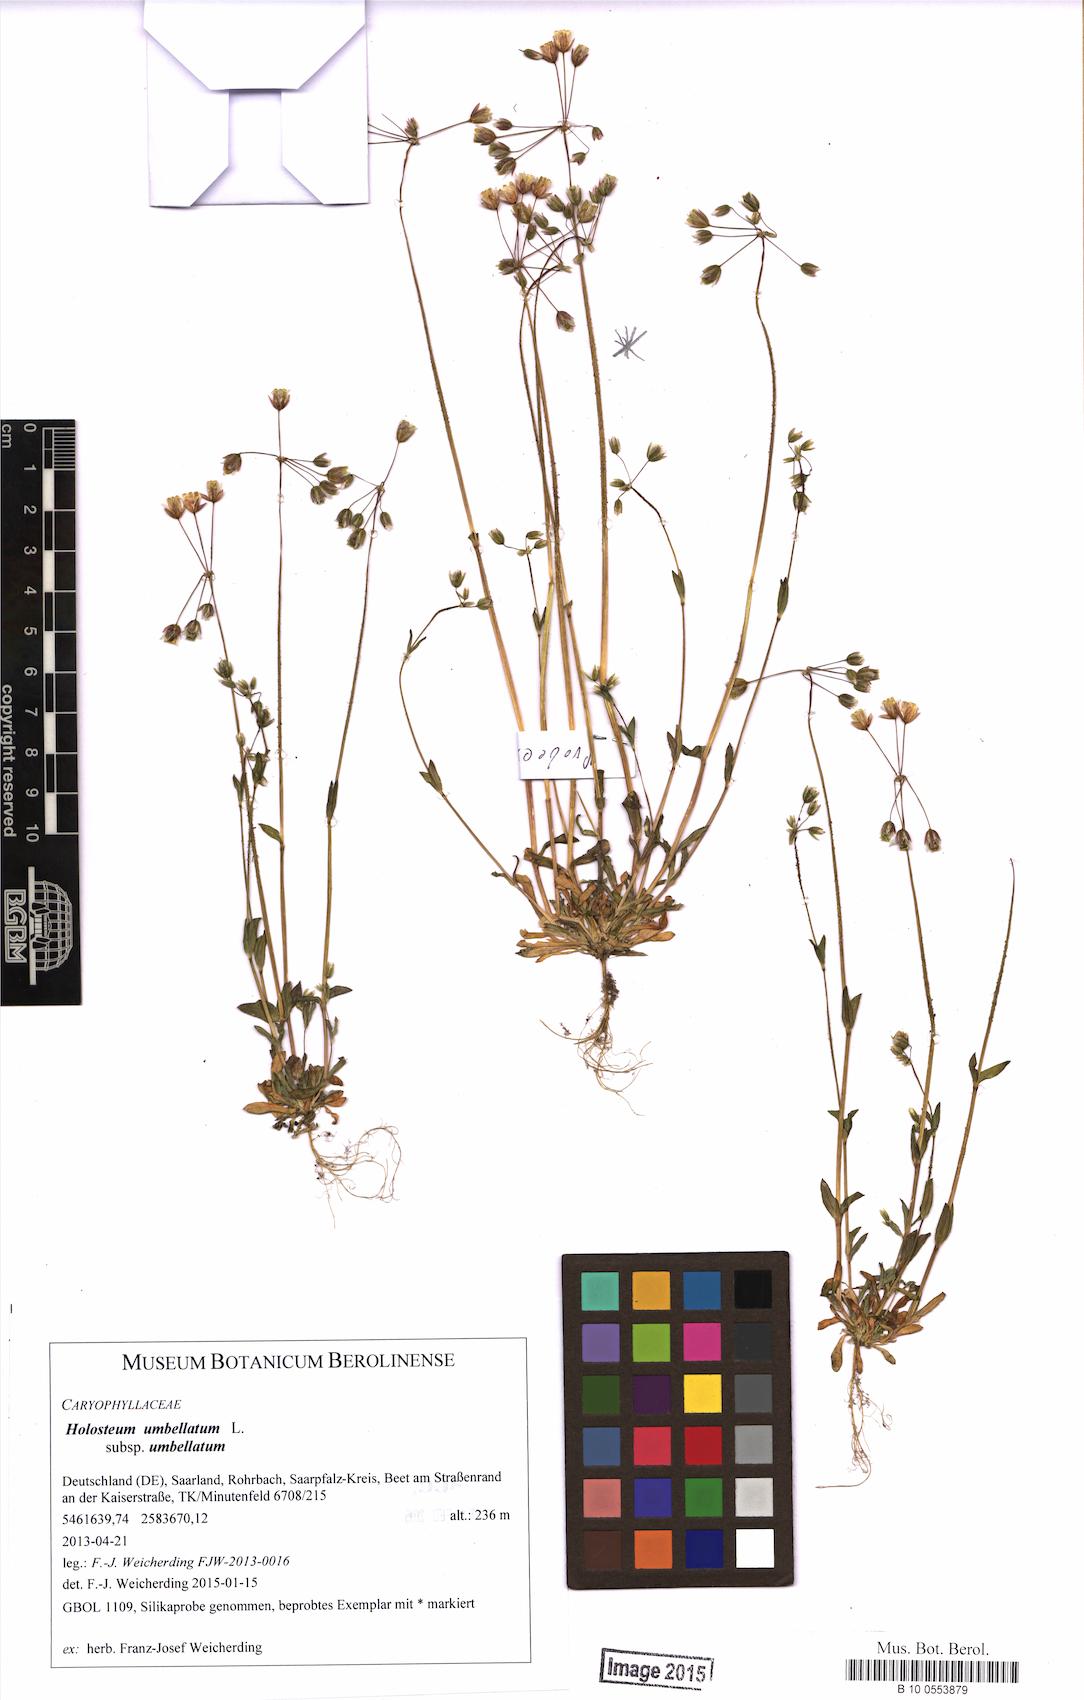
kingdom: Plantae
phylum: Tracheophyta
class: Magnoliopsida
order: Caryophyllales
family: Caryophyllaceae
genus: Holosteum
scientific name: Holosteum umbellatum
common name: Jagged chickweed
